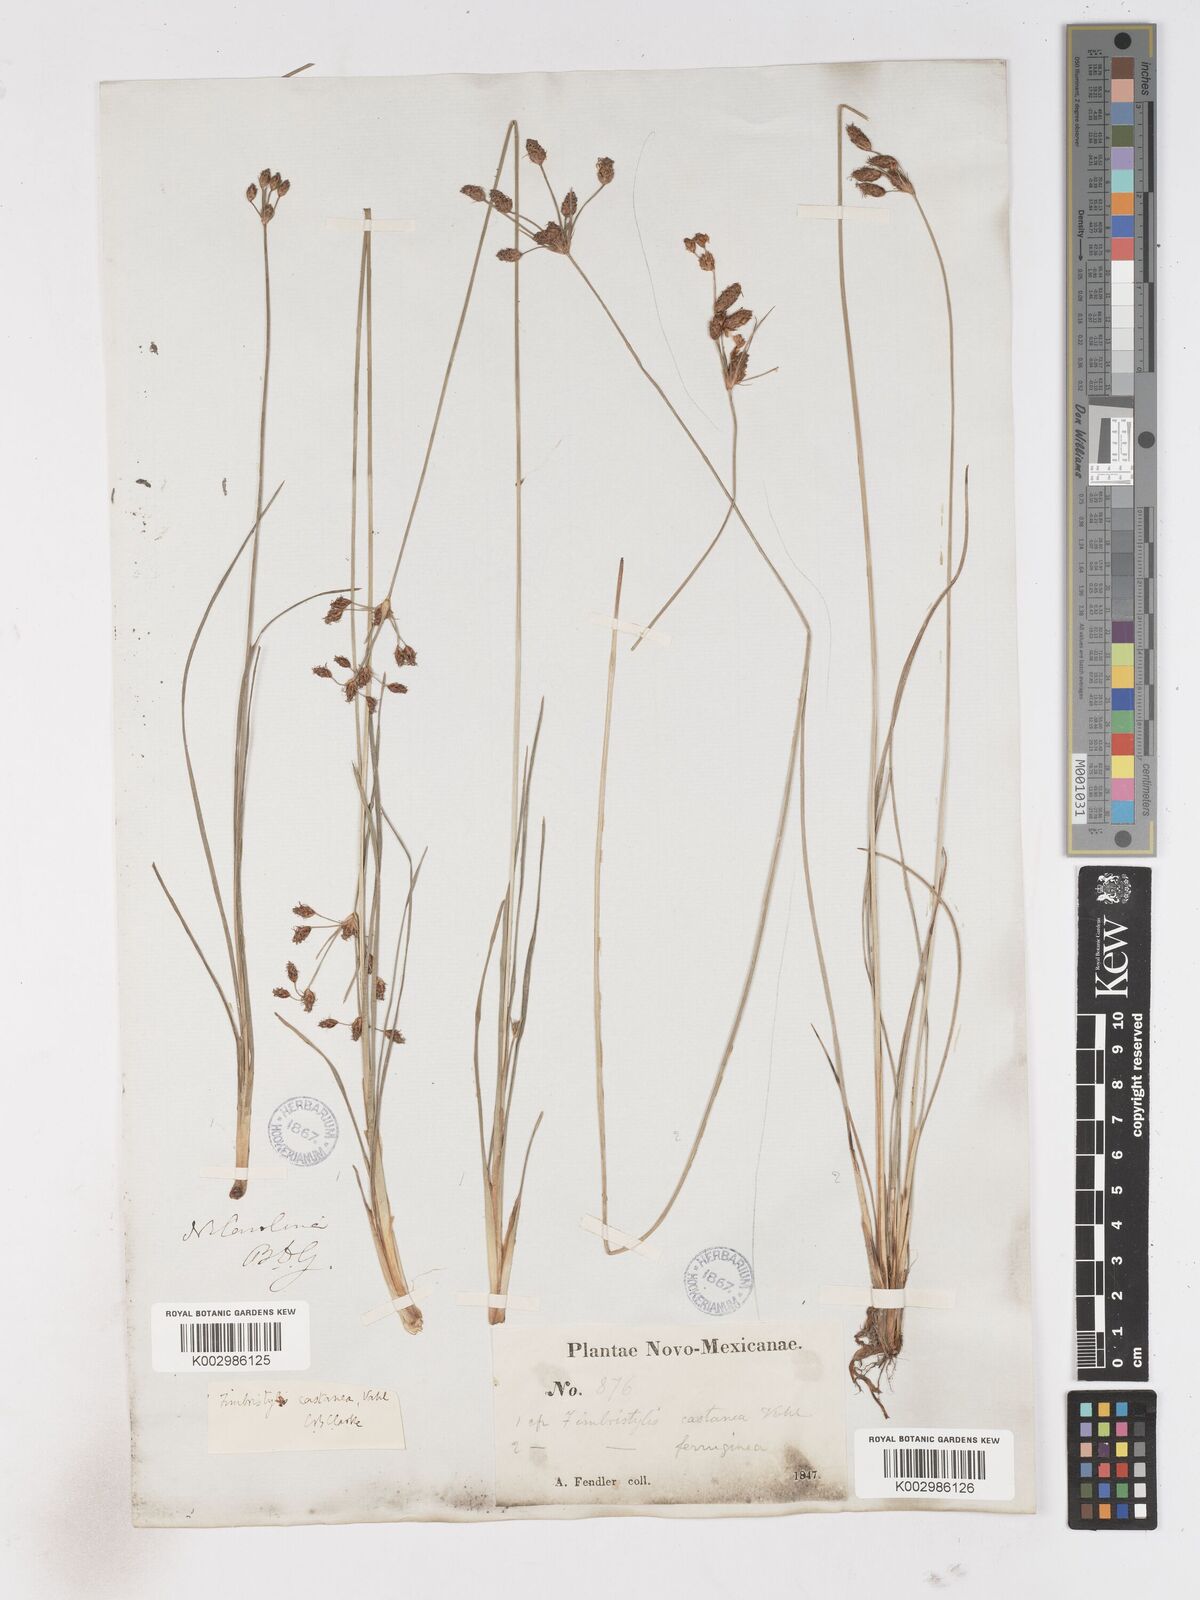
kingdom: Plantae
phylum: Tracheophyta
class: Liliopsida
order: Poales
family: Cyperaceae
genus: Fimbristylis
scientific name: Fimbristylis spadicea
